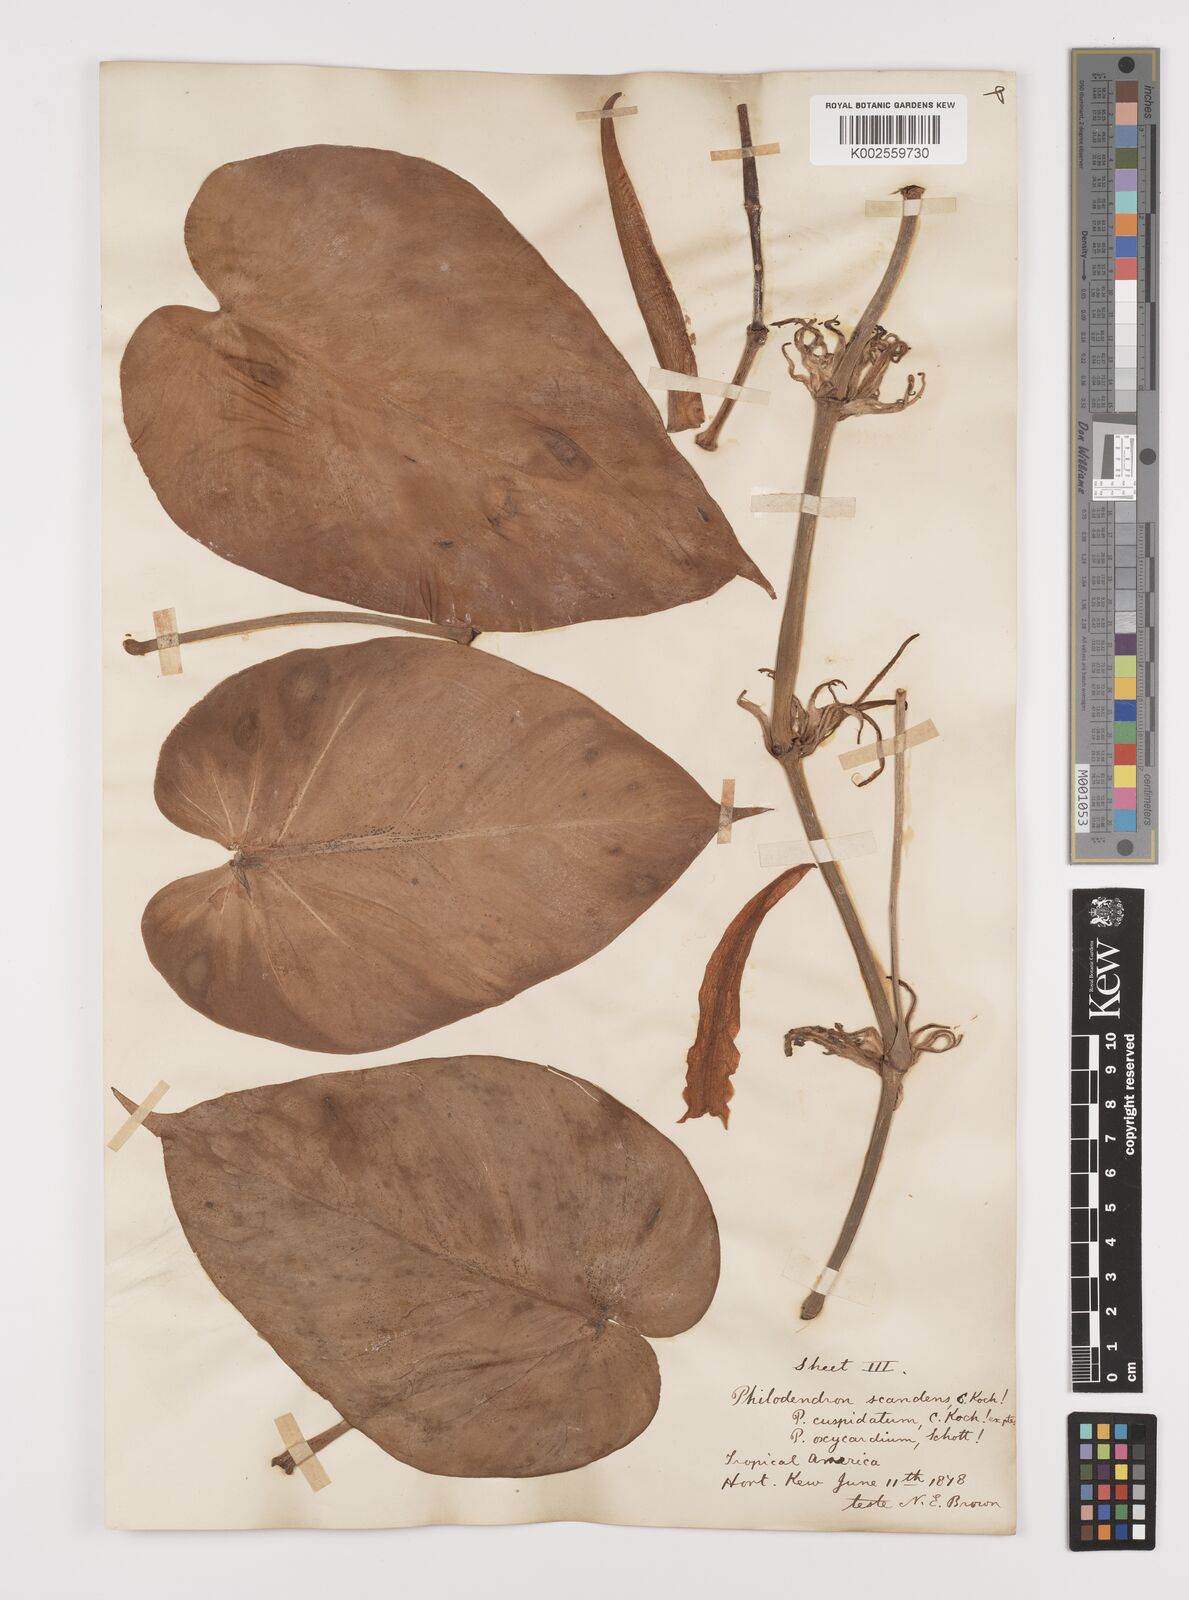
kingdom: Plantae
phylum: Tracheophyta
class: Liliopsida
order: Alismatales
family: Araceae
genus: Philodendron
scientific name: Philodendron hederaceum
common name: Vilevine
